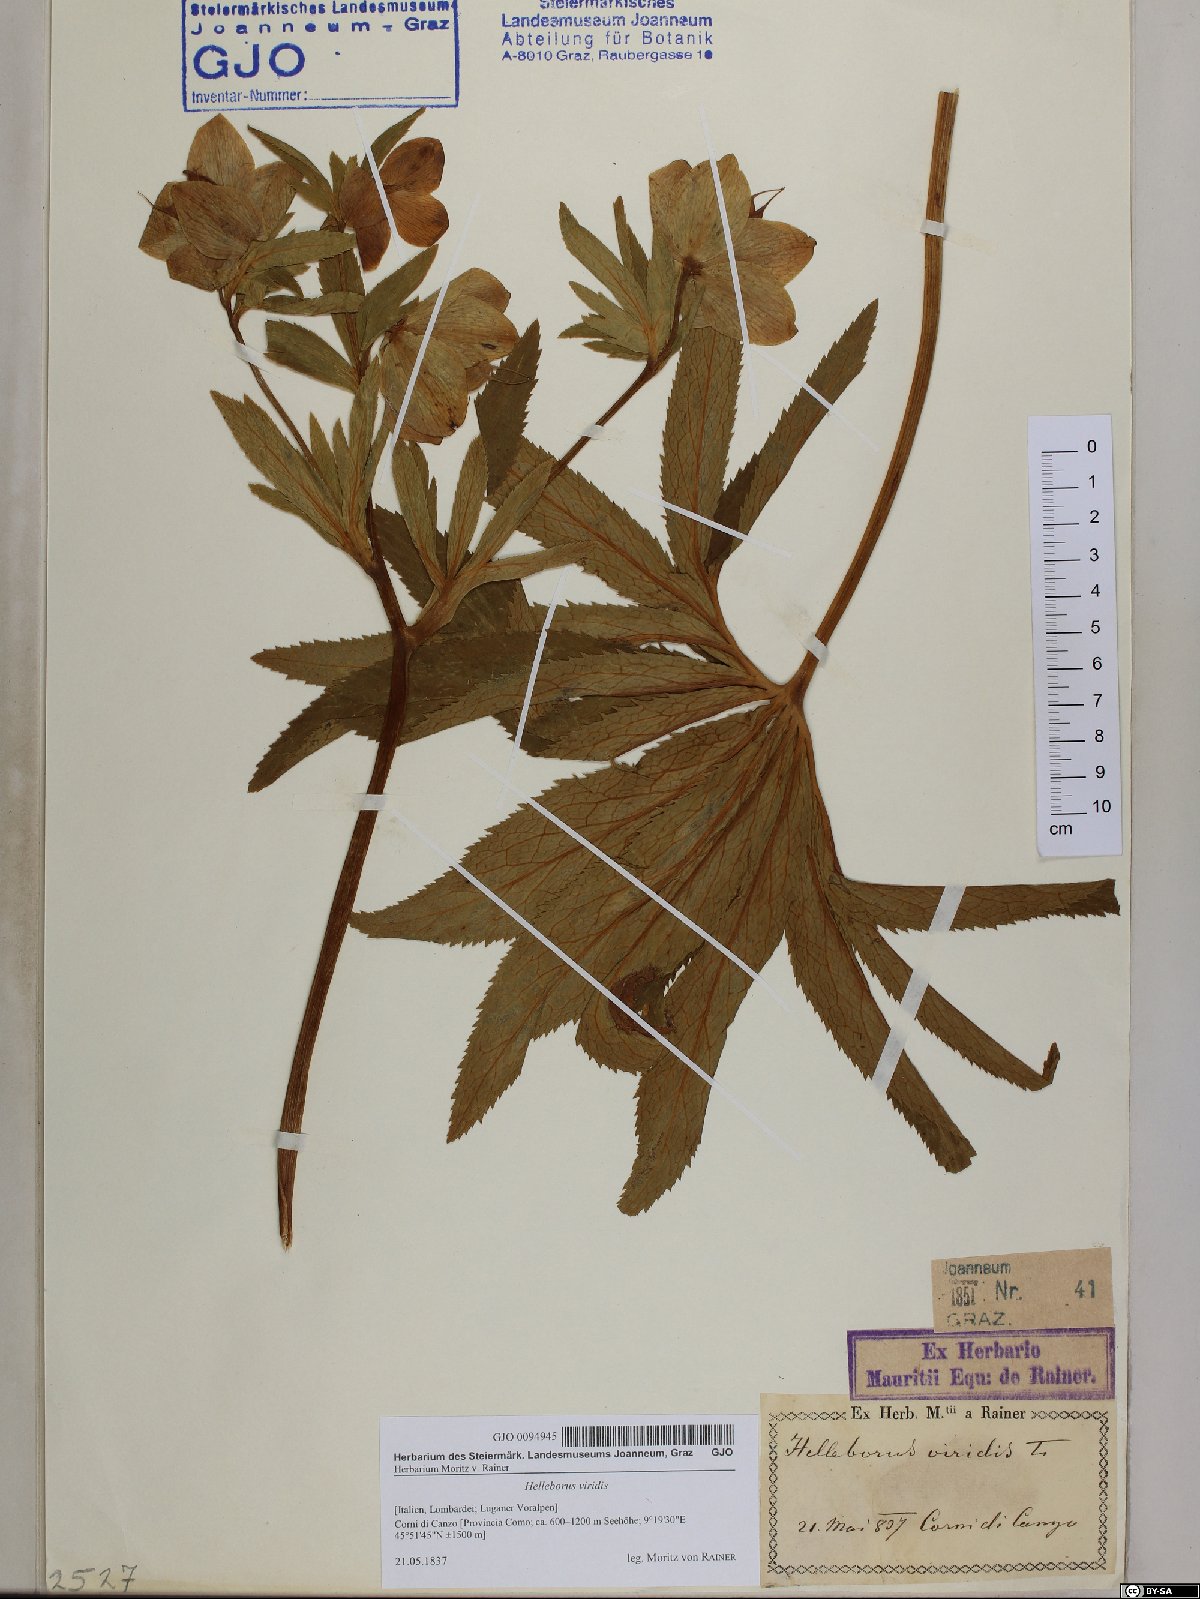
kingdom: Plantae
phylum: Tracheophyta
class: Magnoliopsida
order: Ranunculales
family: Ranunculaceae
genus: Helleborus
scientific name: Helleborus viridis
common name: Green hellebore
